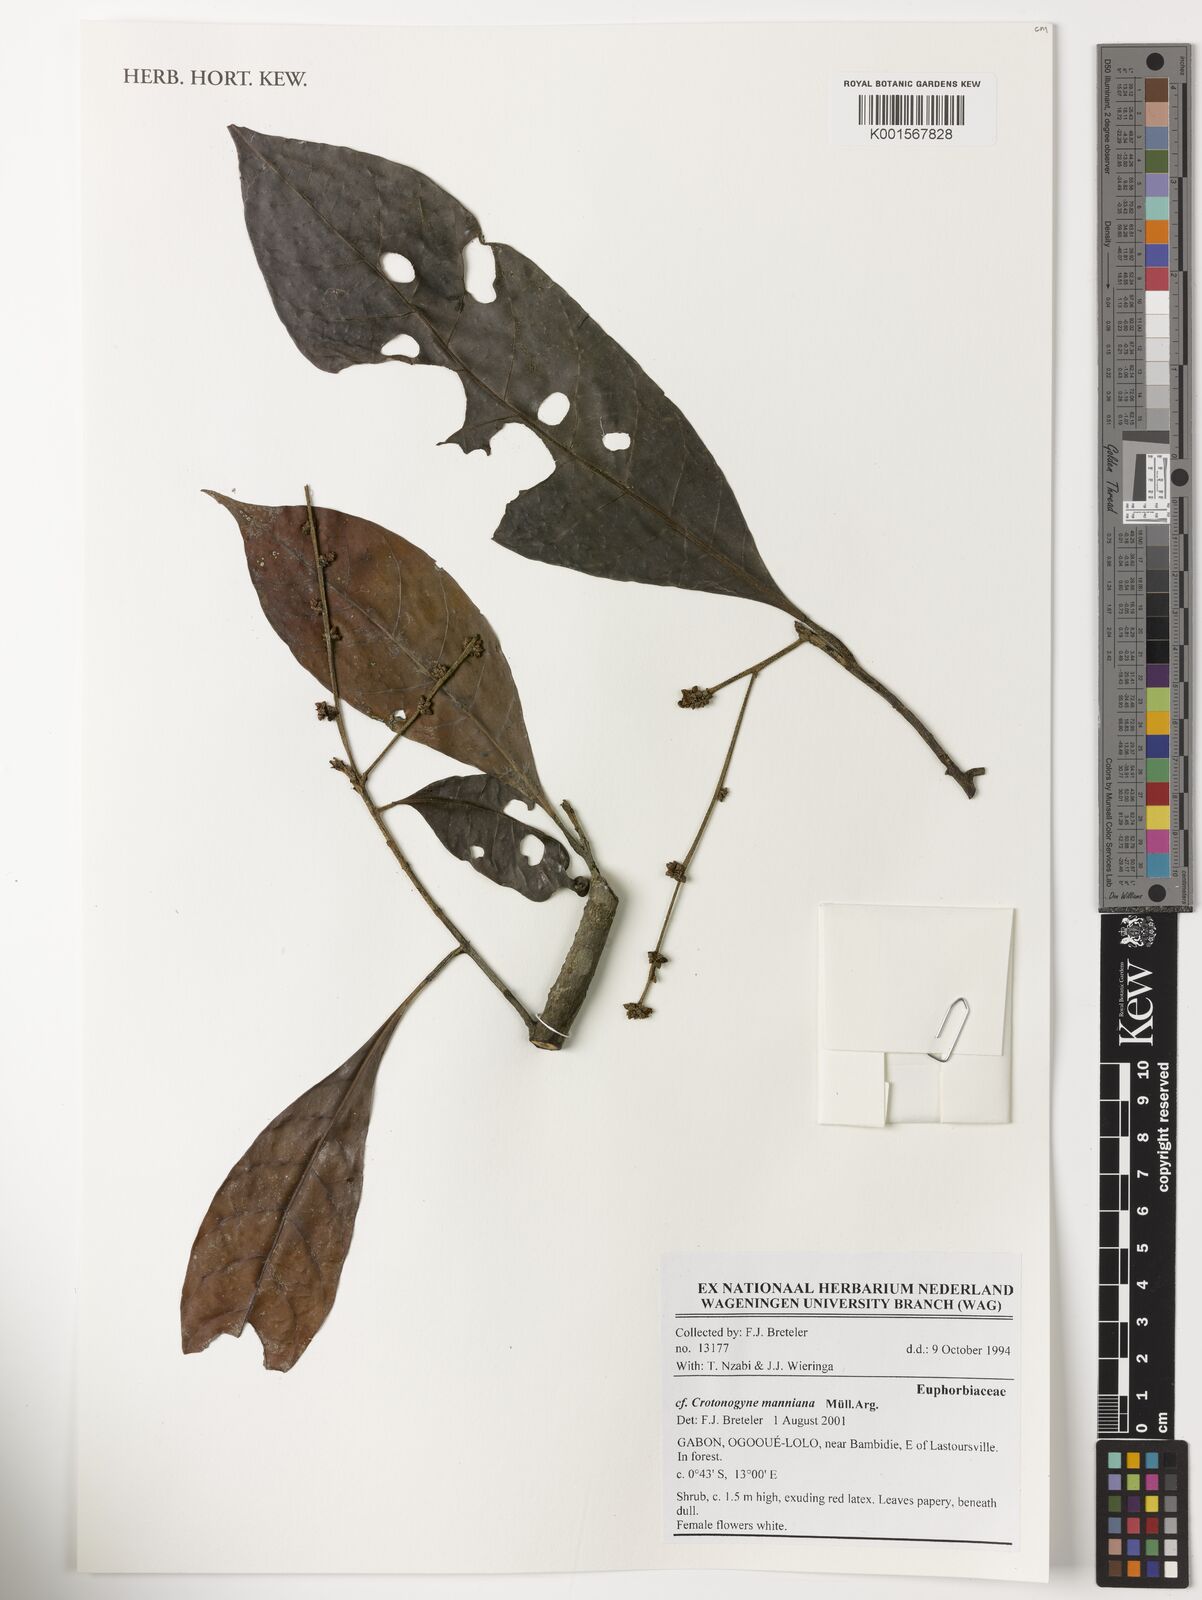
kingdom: Plantae
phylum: Tracheophyta
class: Magnoliopsida
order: Malpighiales
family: Euphorbiaceae
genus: Crotonogyne
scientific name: Crotonogyne manniana
